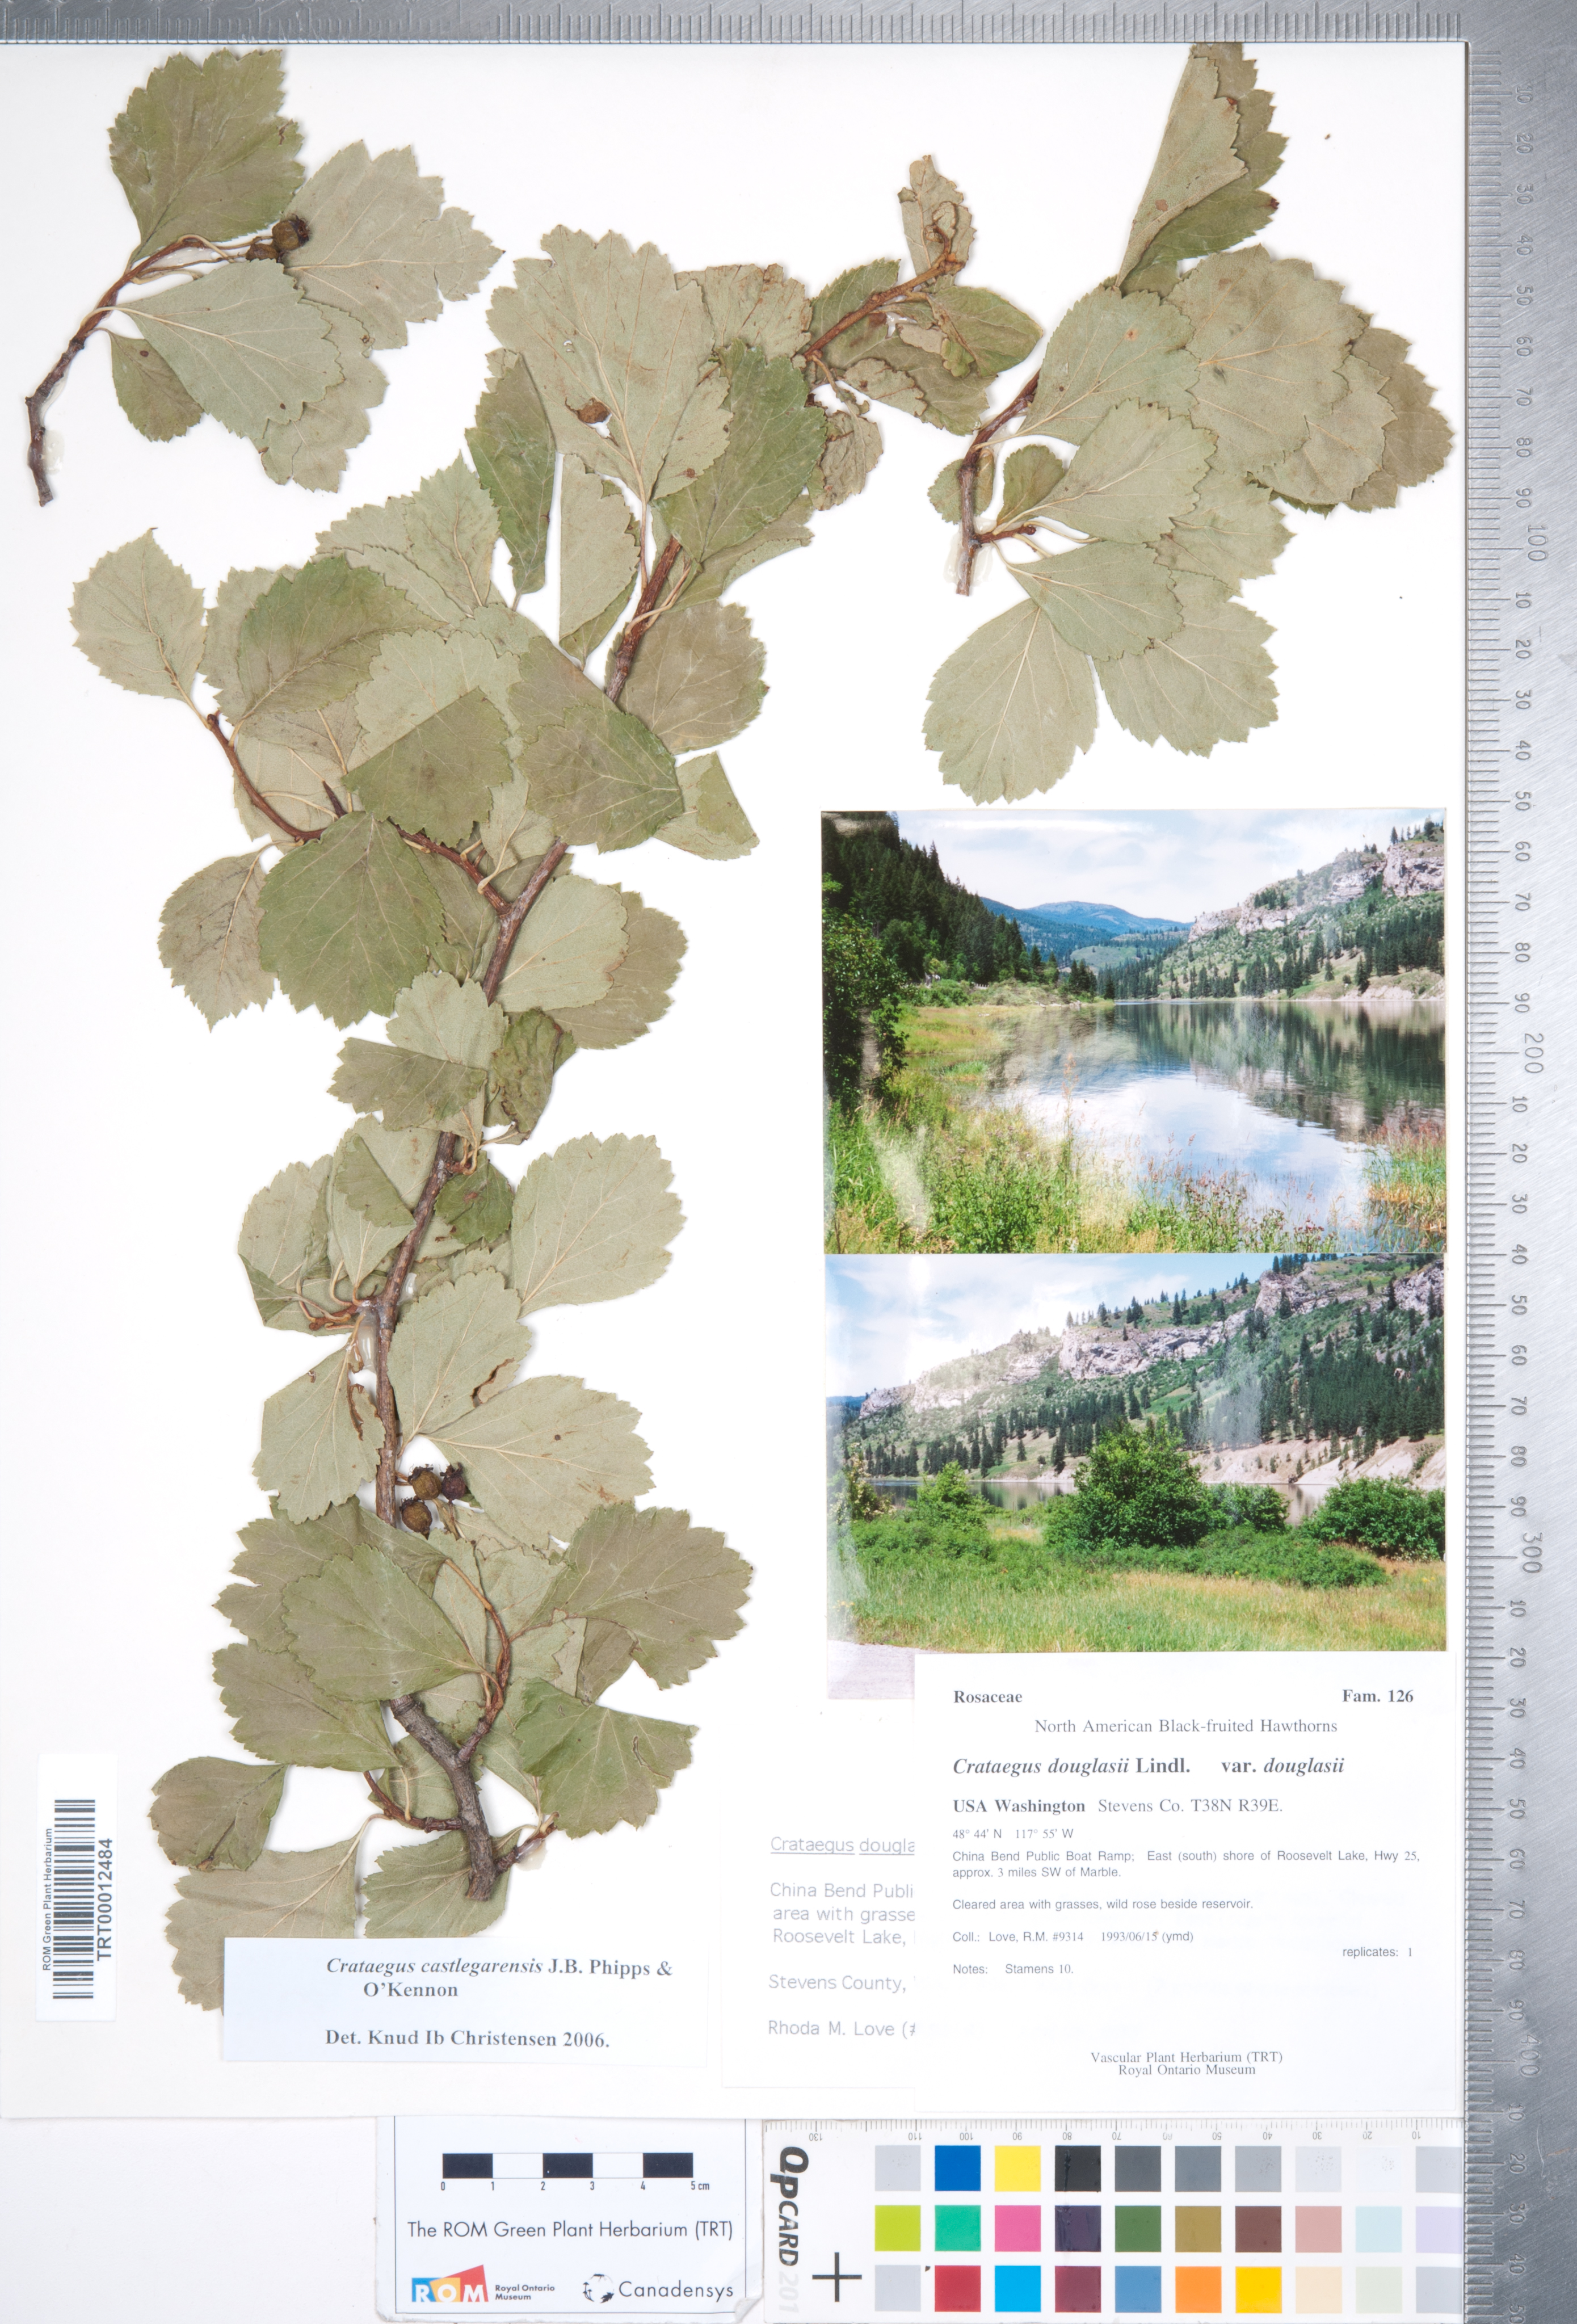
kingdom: Plantae
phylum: Tracheophyta
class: Magnoliopsida
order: Rosales
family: Rosaceae
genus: Crataegus
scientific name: Crataegus castlegarensis
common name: Castlegar hawthorn
